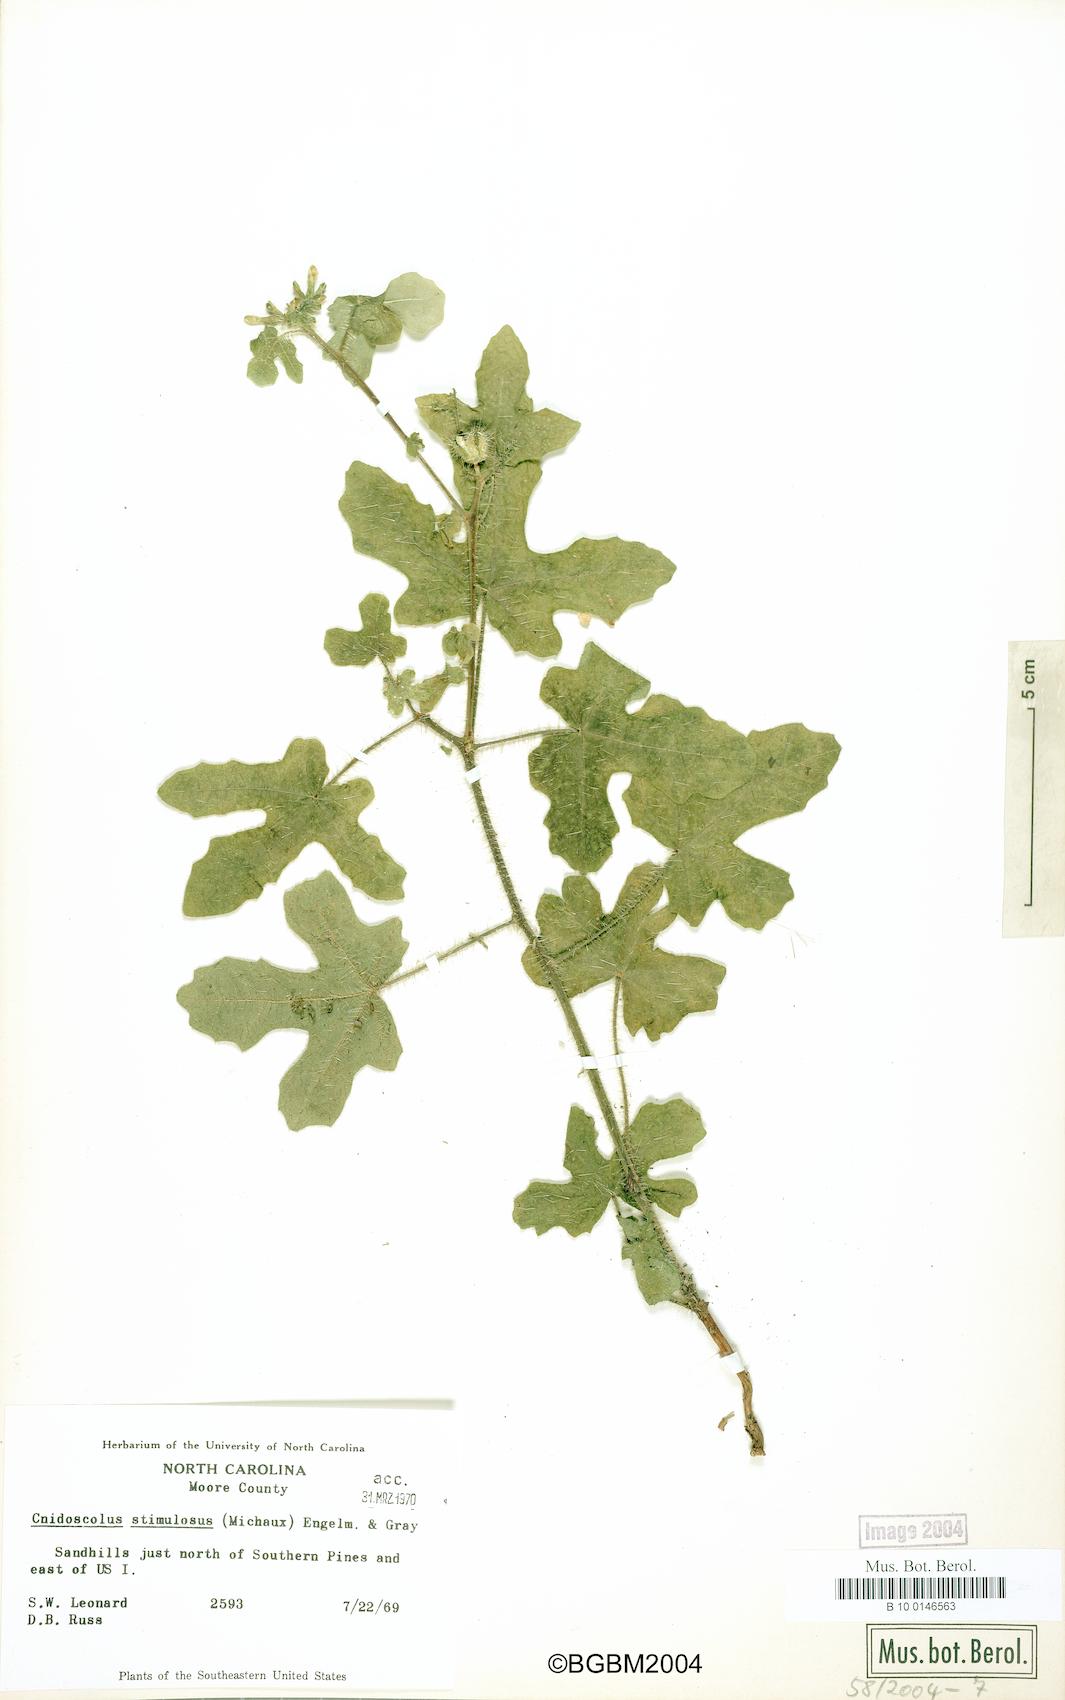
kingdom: Plantae
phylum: Tracheophyta
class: Magnoliopsida
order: Malpighiales
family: Euphorbiaceae
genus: Cnidoscolus
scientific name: Cnidoscolus stimulosus
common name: Bull-nettle
